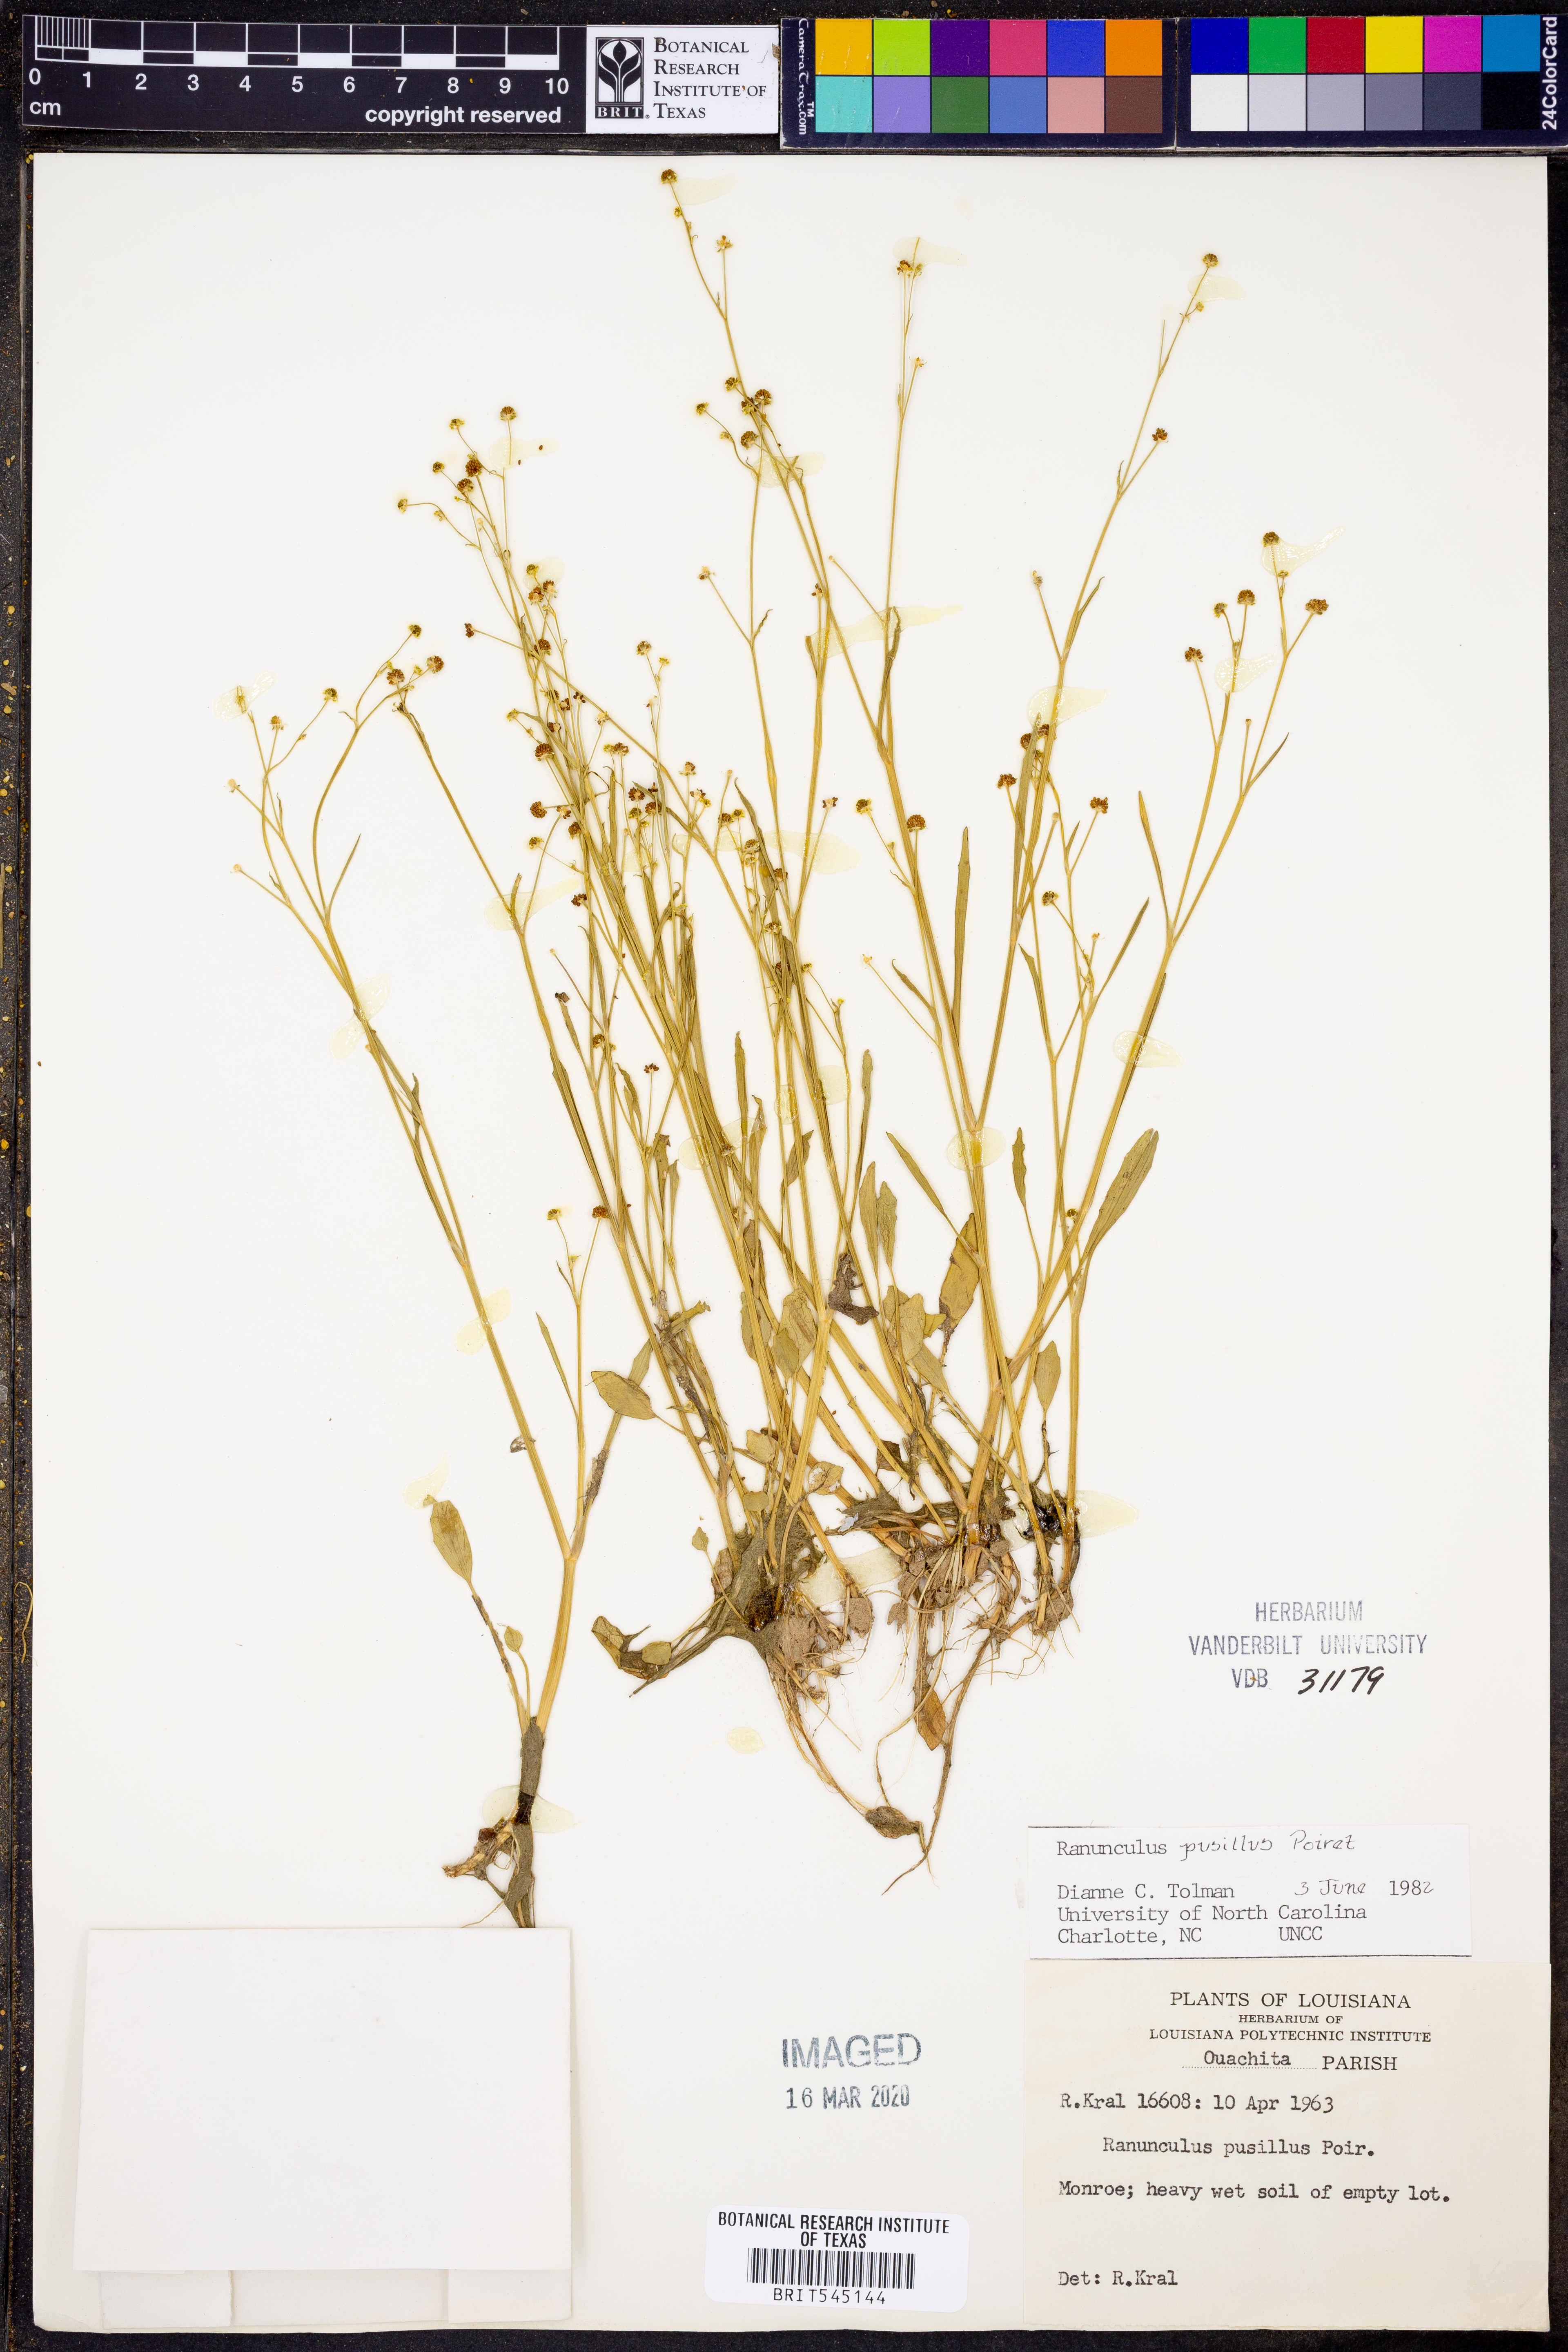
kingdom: Plantae
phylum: Tracheophyta
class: Magnoliopsida
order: Ranunculales
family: Ranunculaceae
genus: Ranunculus
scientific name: Ranunculus pusillus
